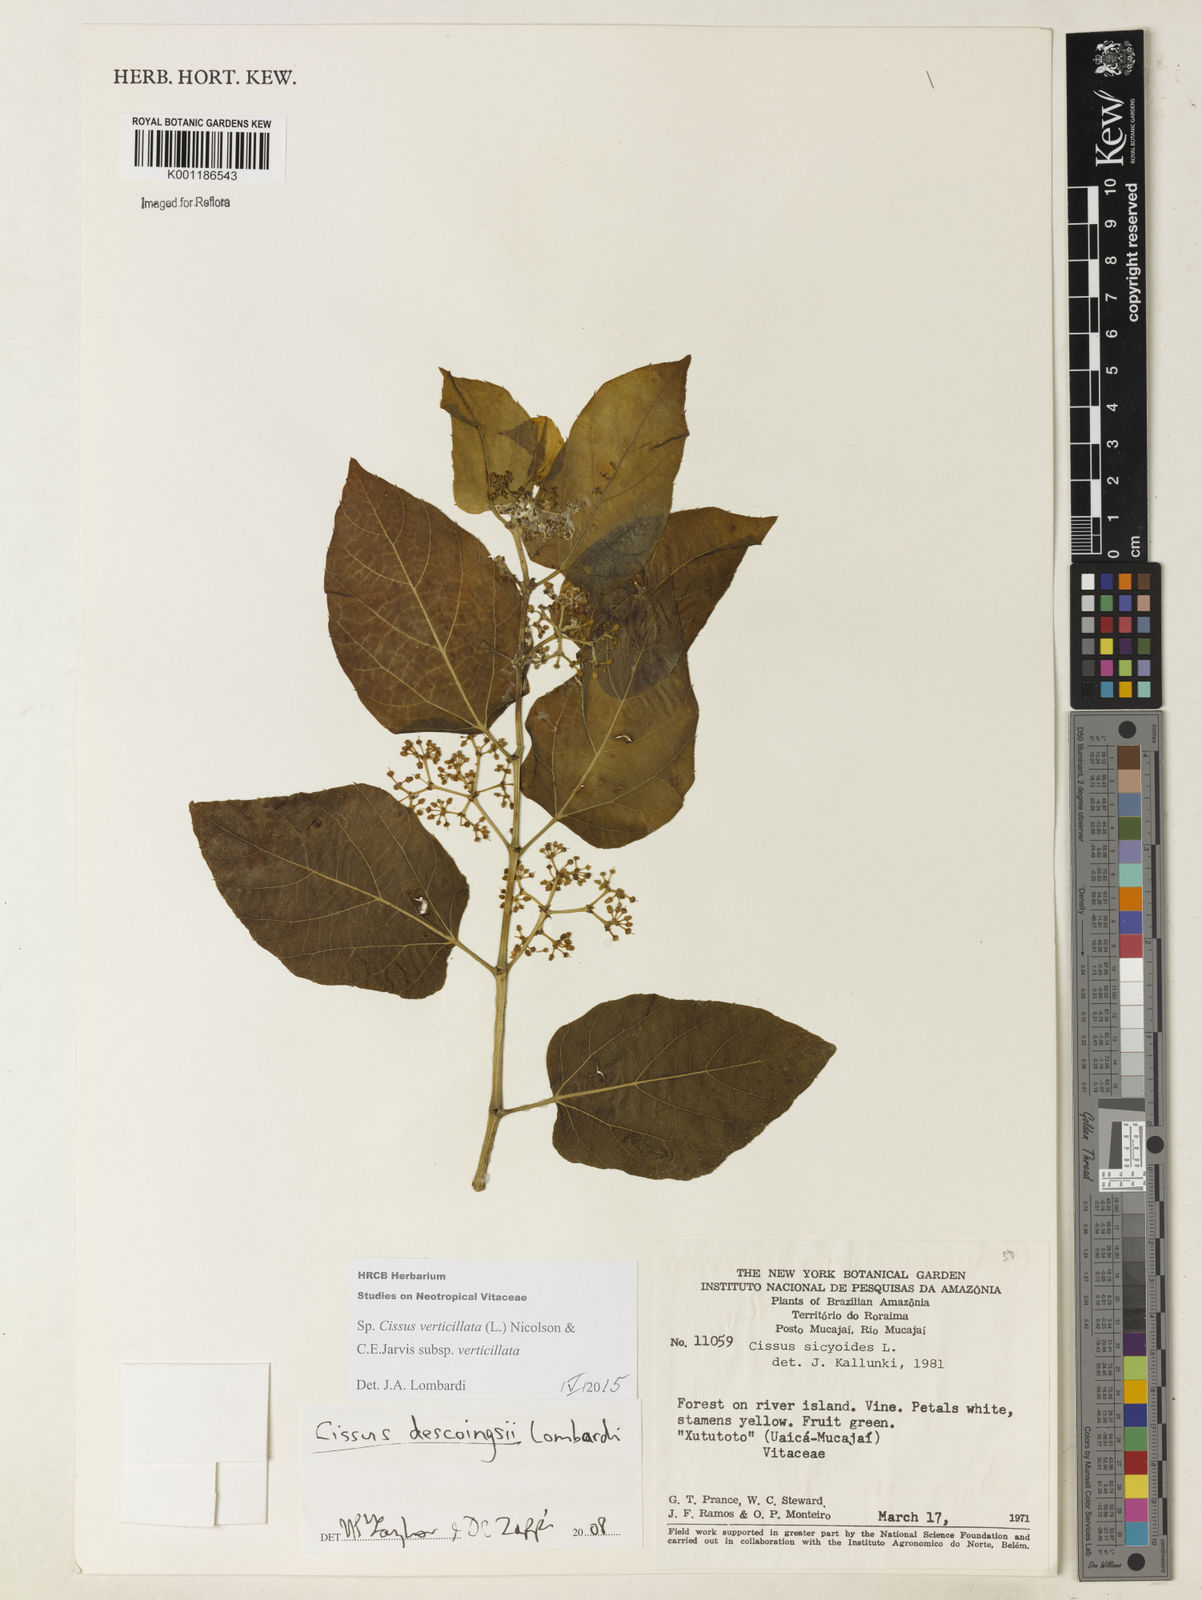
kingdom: Plantae
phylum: Tracheophyta
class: Magnoliopsida
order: Vitales
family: Vitaceae
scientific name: Vitaceae
